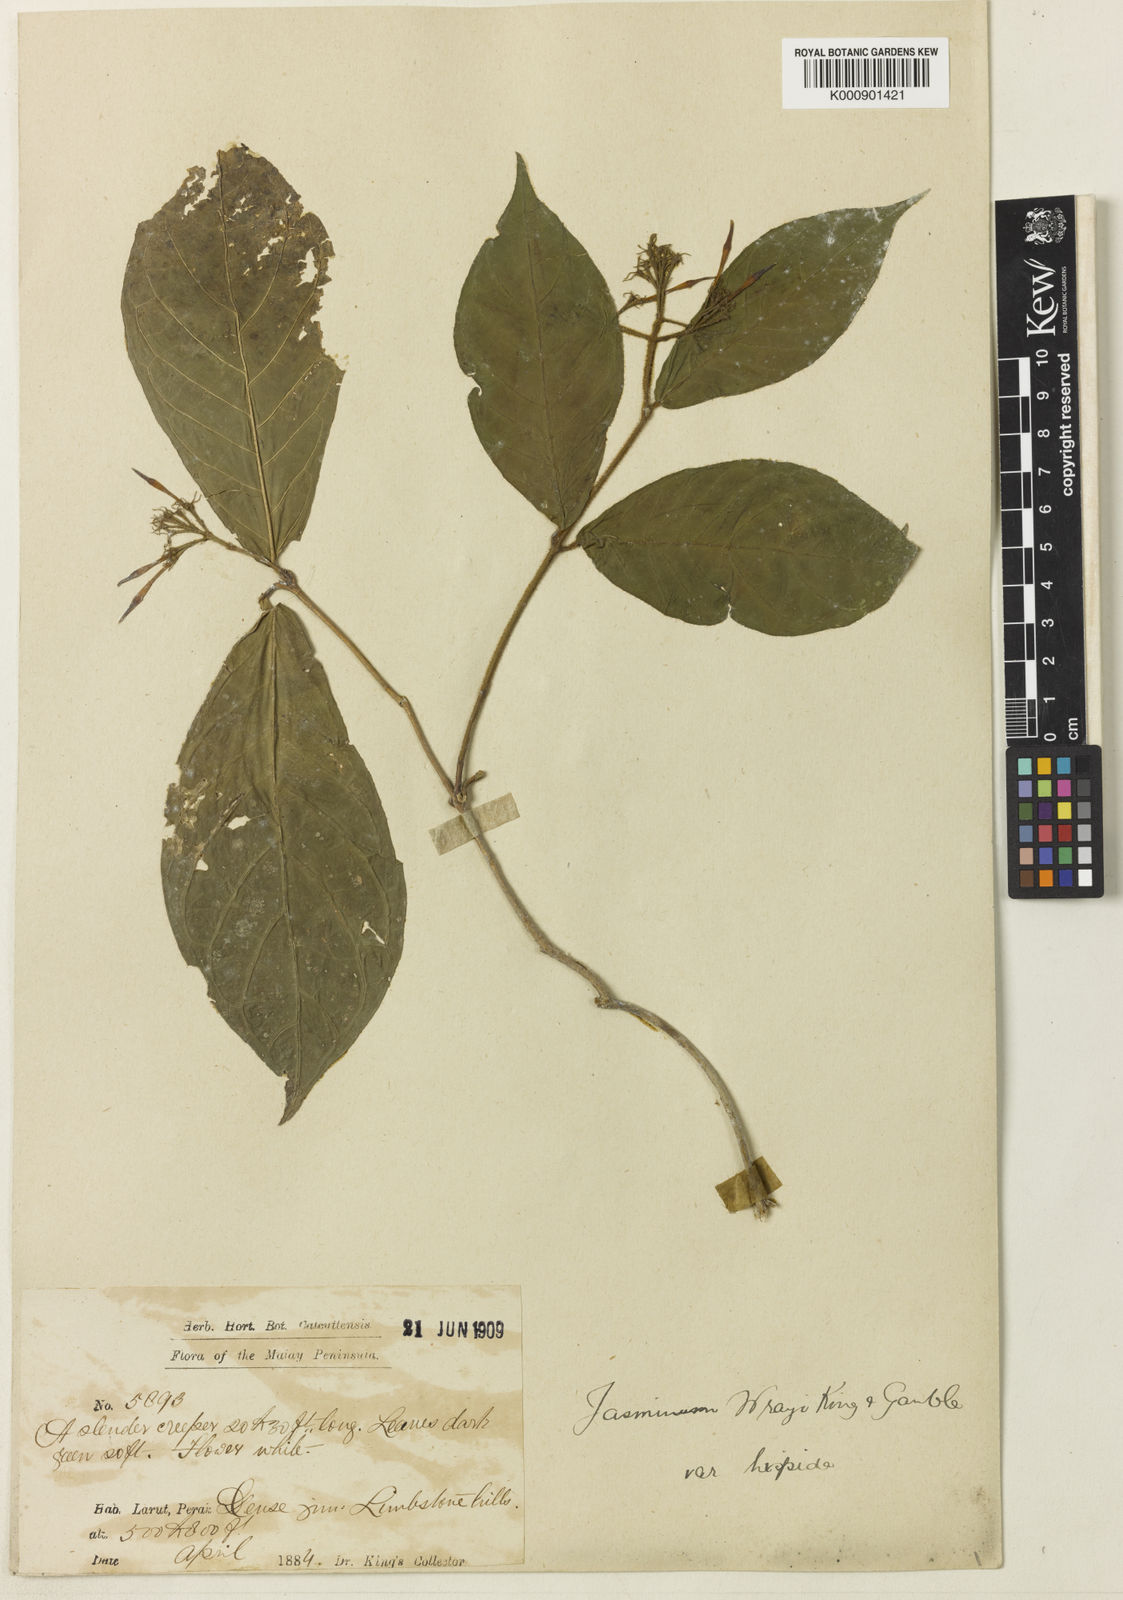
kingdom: Plantae
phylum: Tracheophyta
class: Magnoliopsida
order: Lamiales
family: Oleaceae
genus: Jasminum
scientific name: Jasminum wrayi
